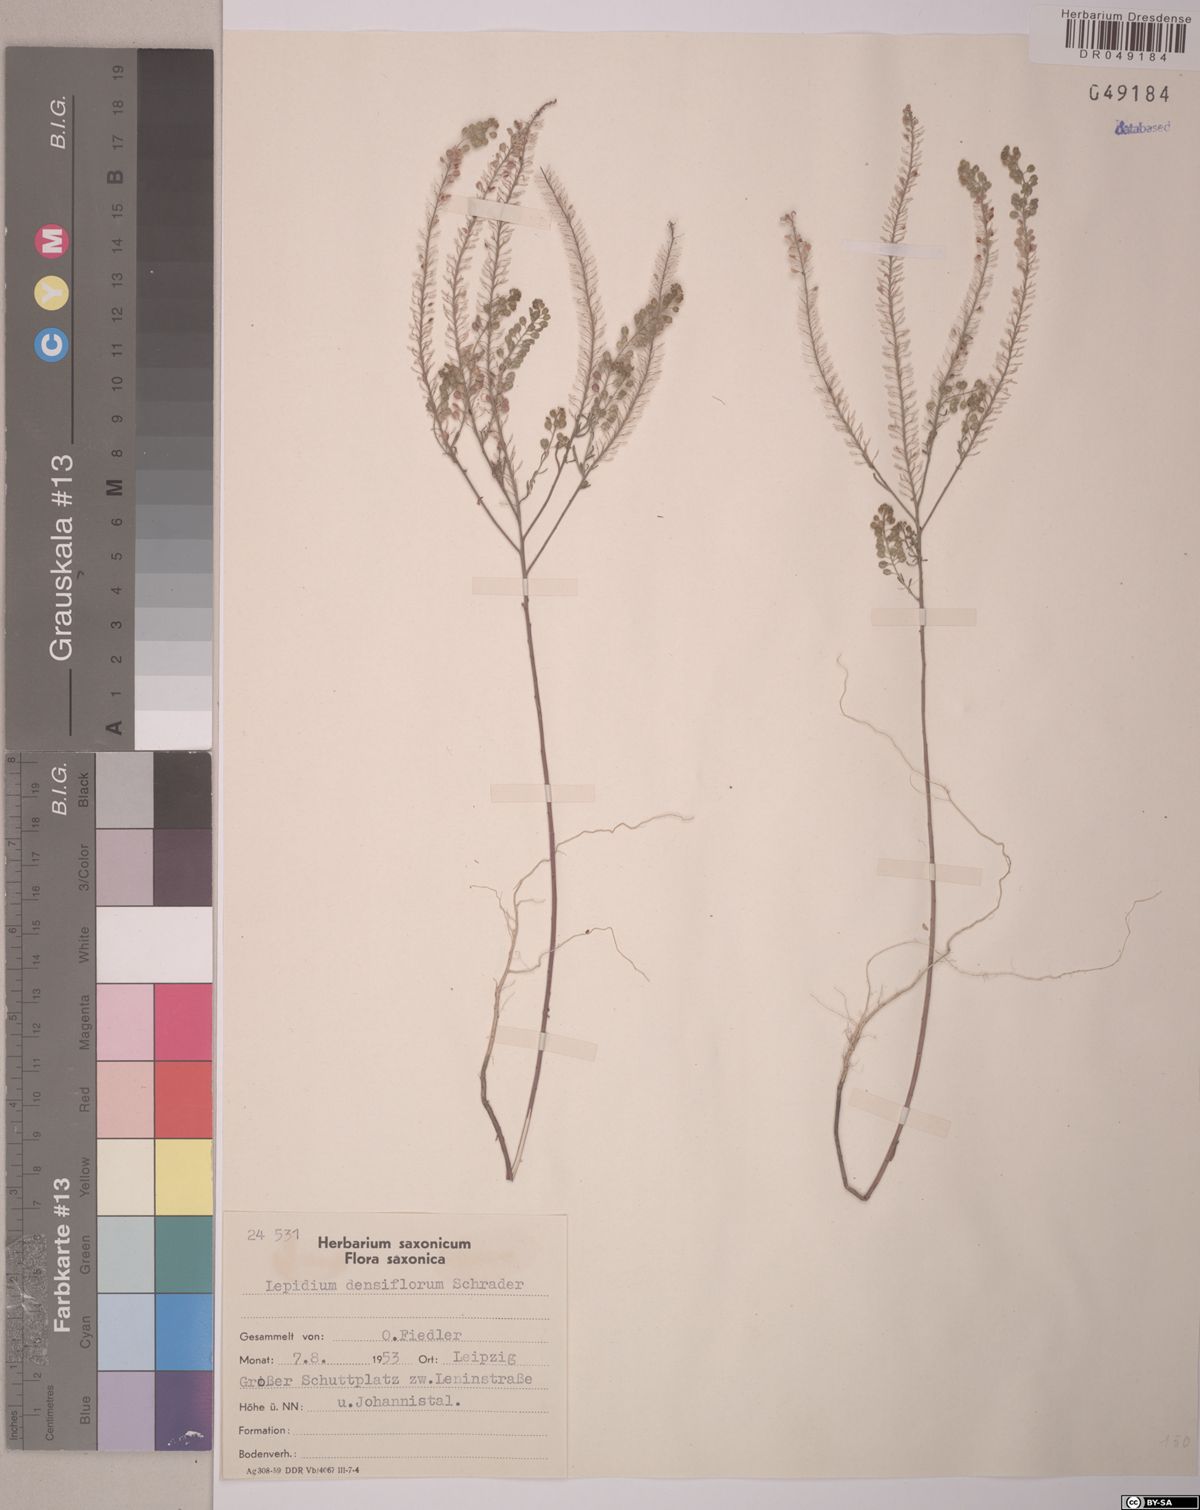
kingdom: Plantae
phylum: Tracheophyta
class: Magnoliopsida
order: Brassicales
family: Brassicaceae
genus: Lepidium
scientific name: Lepidium densiflorum
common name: Miner's pepperwort
